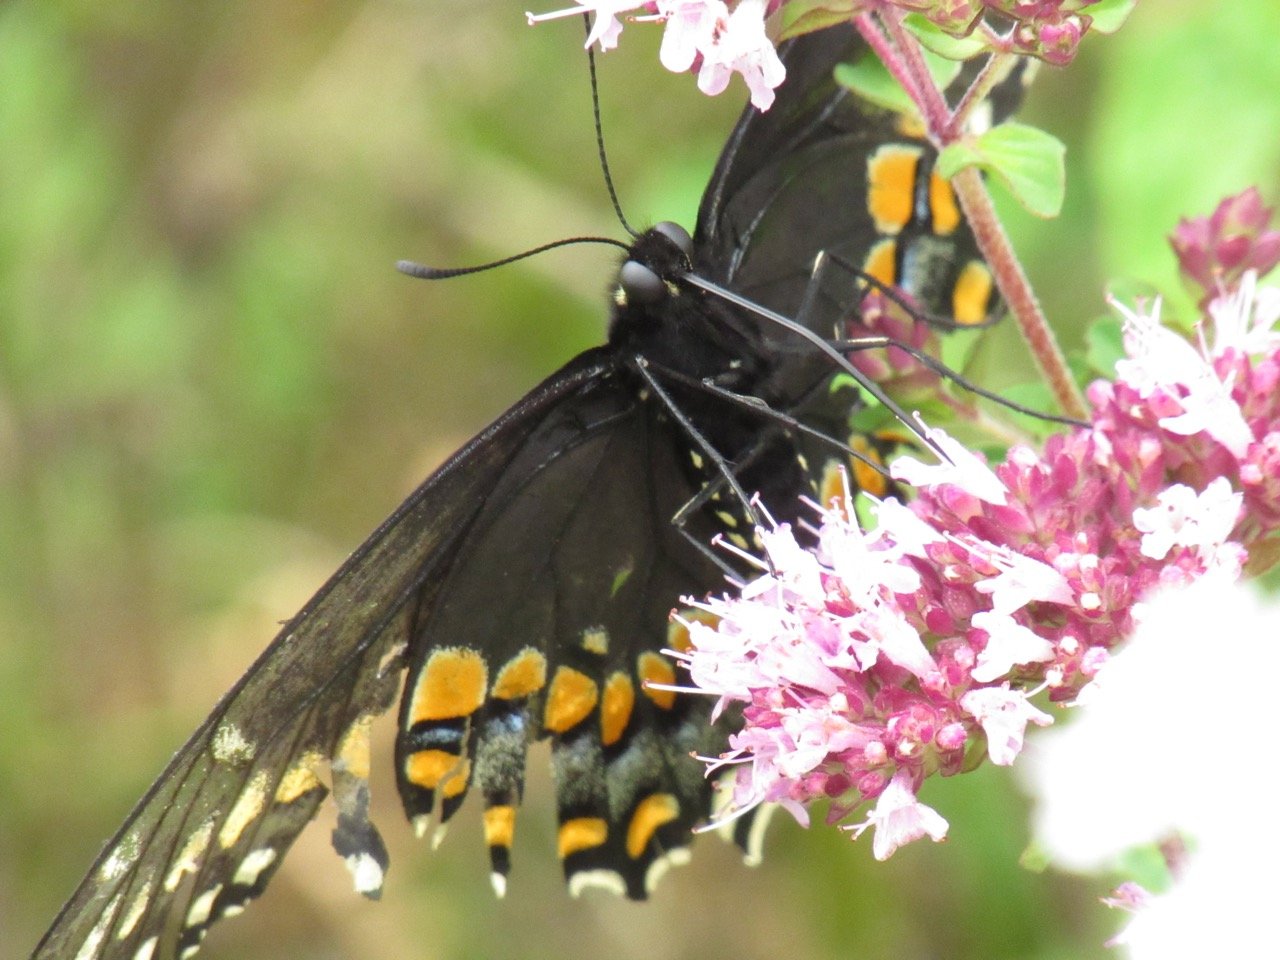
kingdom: Animalia
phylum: Arthropoda
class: Insecta
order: Lepidoptera
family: Papilionidae
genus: Papilio
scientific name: Papilio polyxenes
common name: Black Swallowtail
